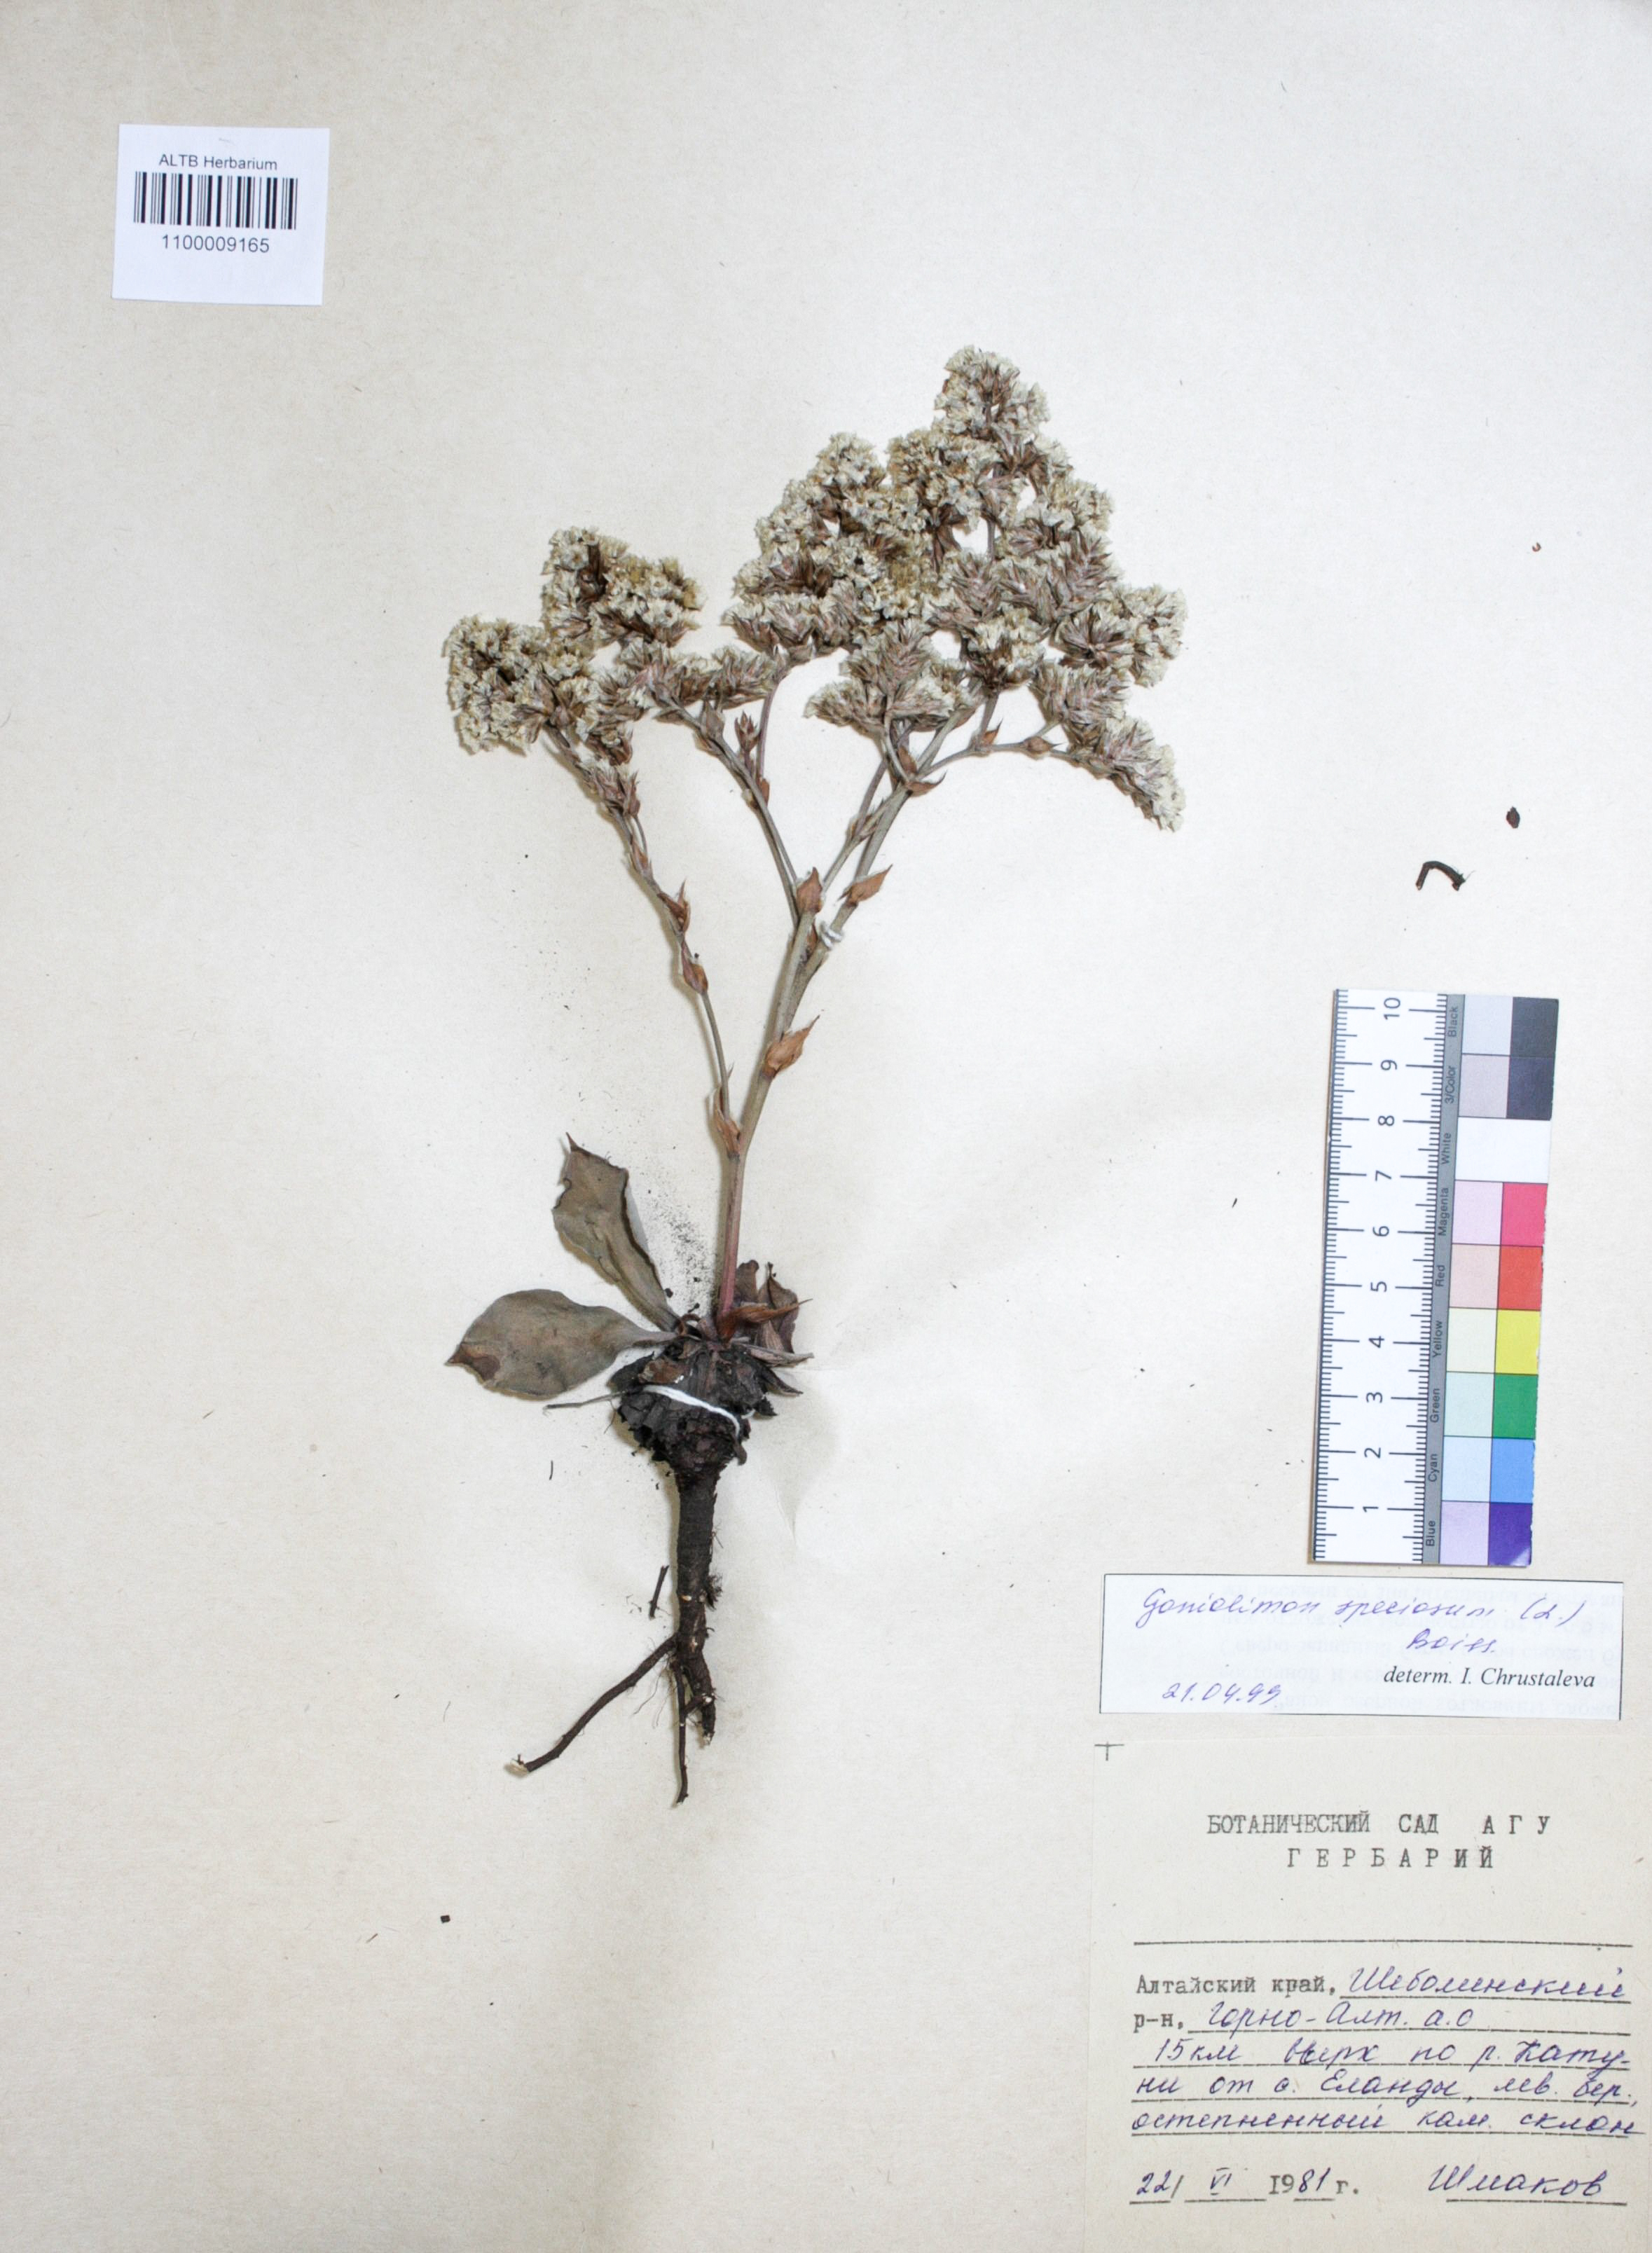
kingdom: Plantae
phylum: Tracheophyta
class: Magnoliopsida
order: Caryophyllales
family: Plumbaginaceae
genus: Goniolimon
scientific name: Goniolimon speciosum
